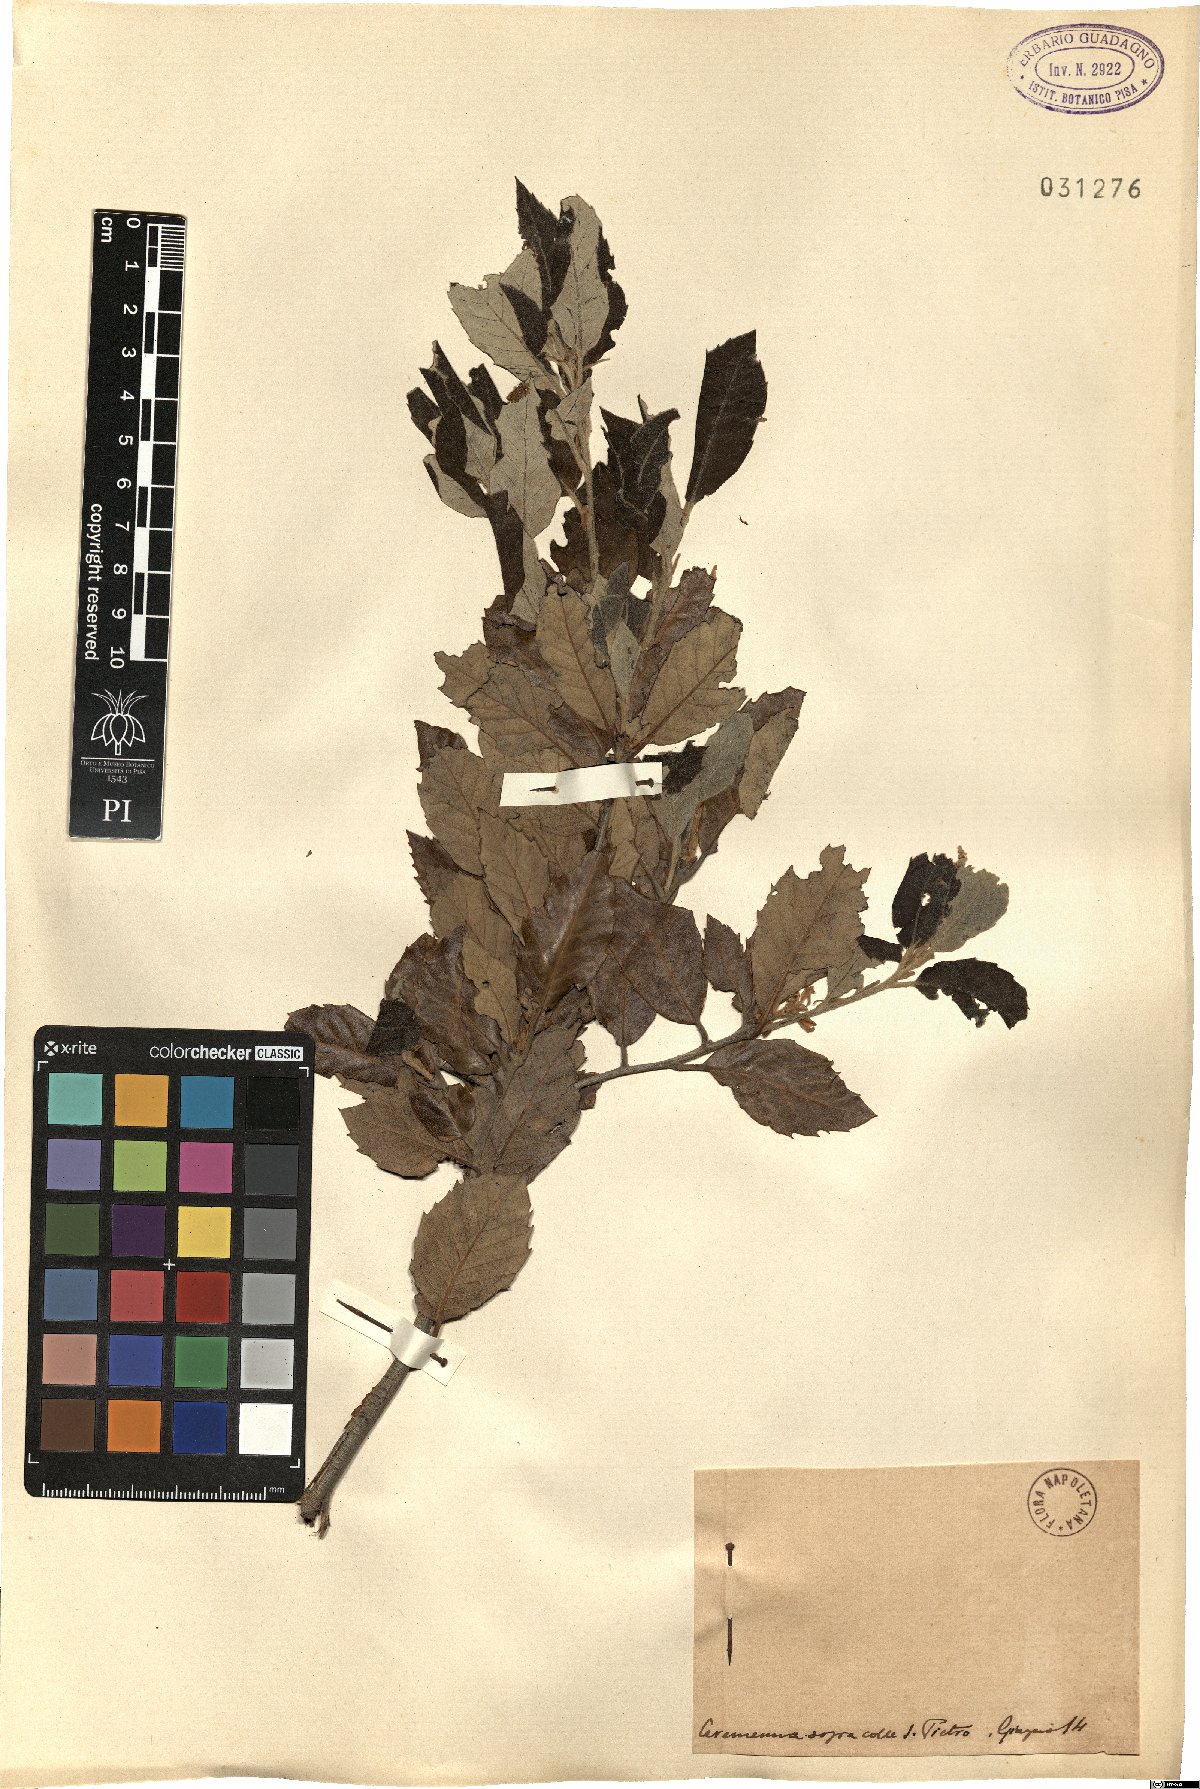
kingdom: Plantae
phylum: Tracheophyta
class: Magnoliopsida
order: Fagales
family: Fagaceae
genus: Quercus
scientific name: Quercus
